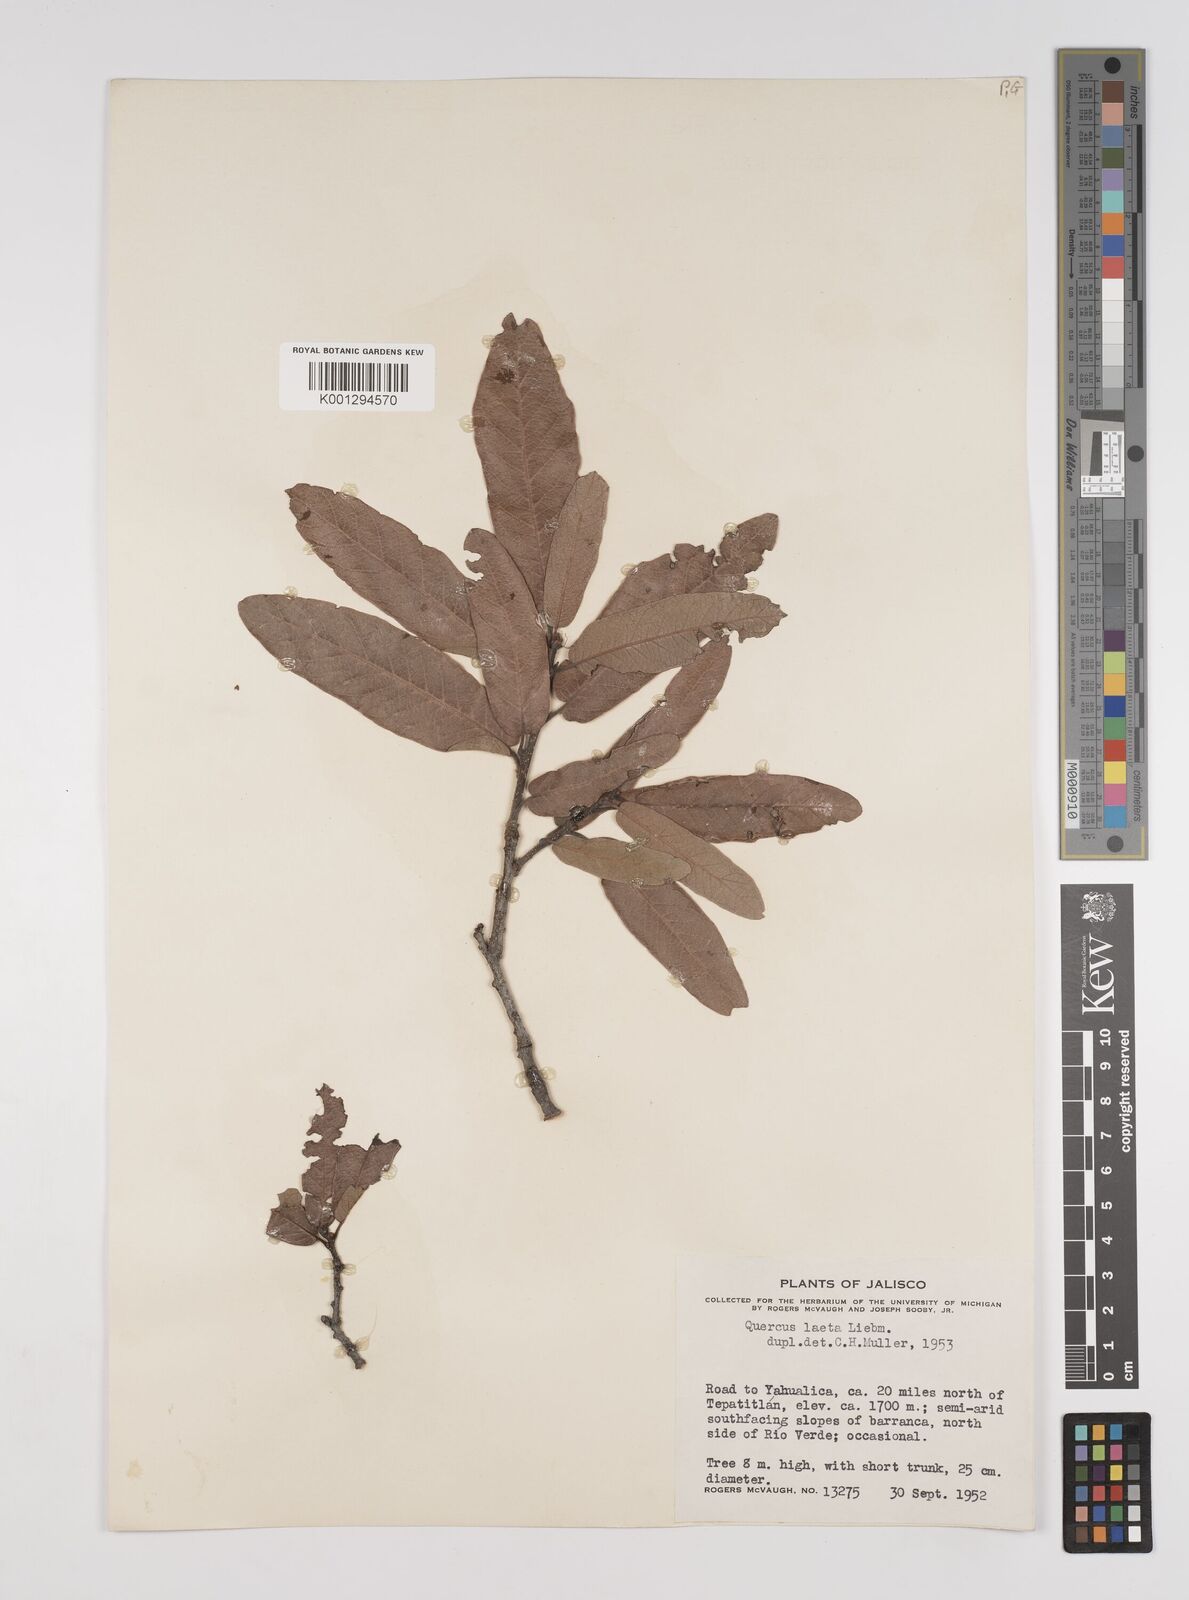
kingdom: Plantae
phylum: Tracheophyta
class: Magnoliopsida
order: Fagales
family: Fagaceae
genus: Quercus
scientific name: Quercus laeta
